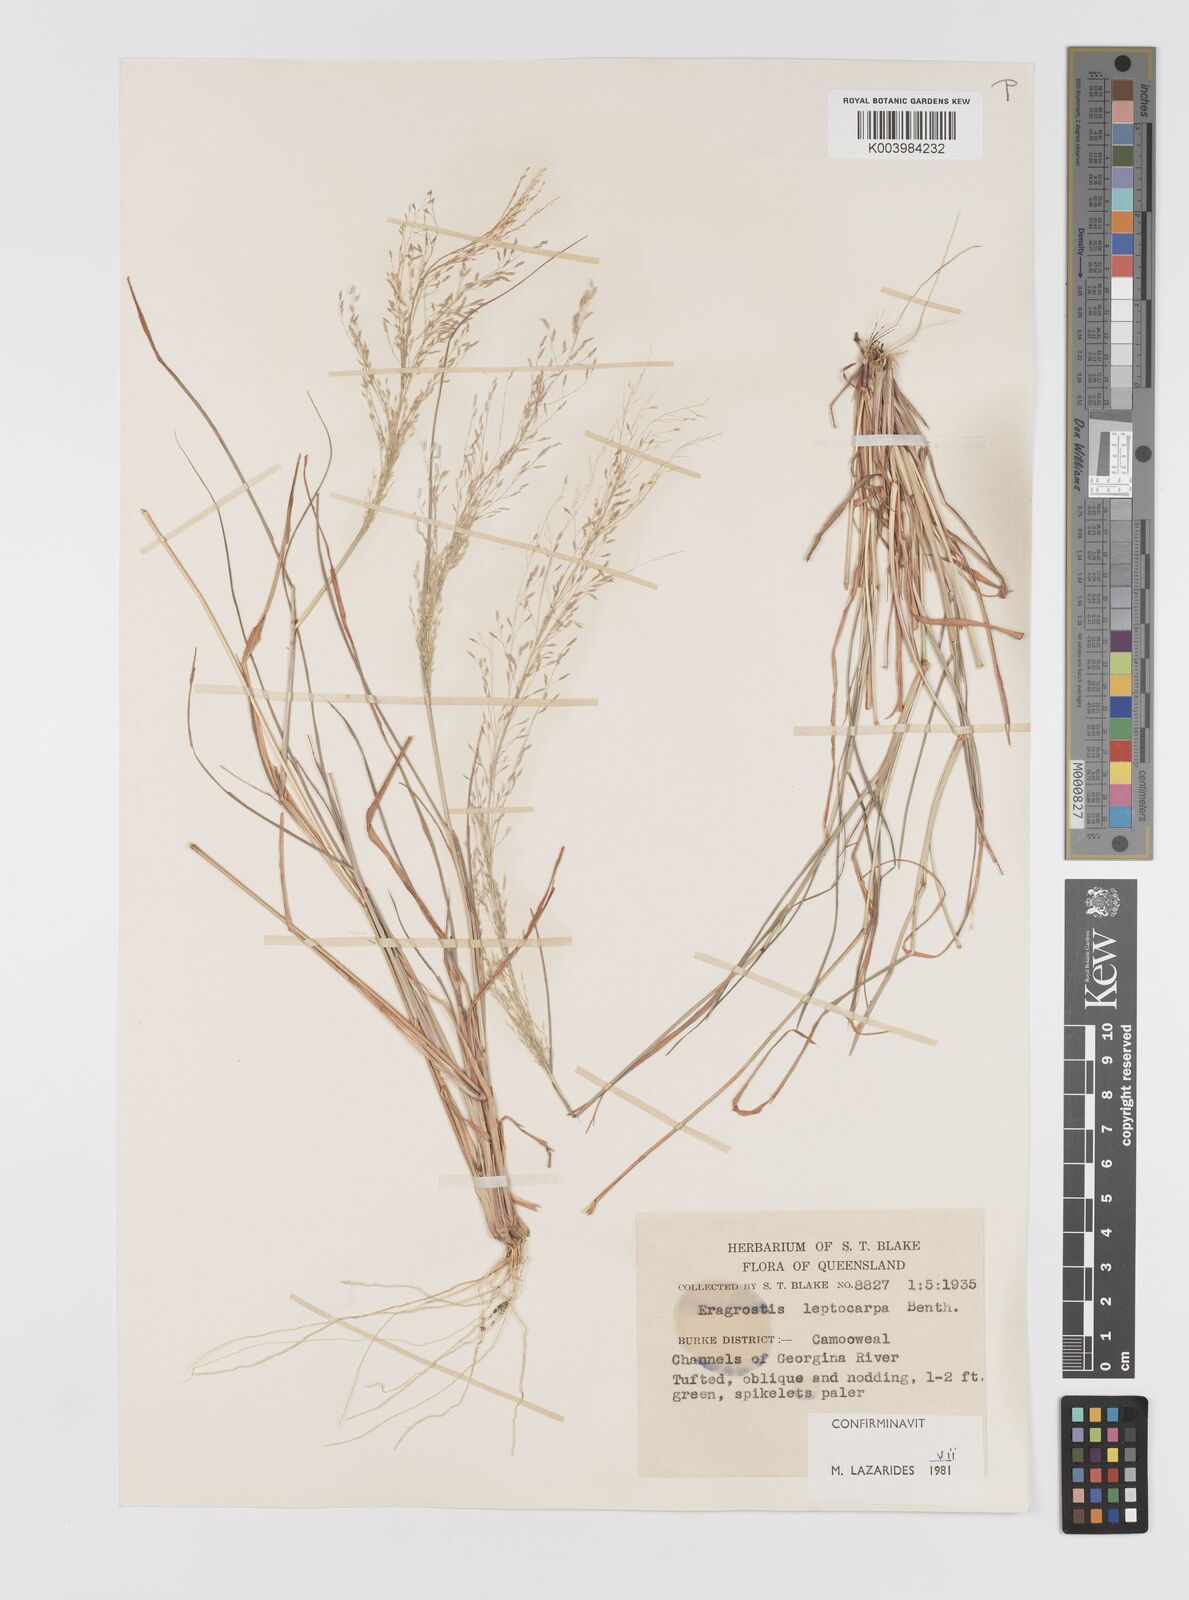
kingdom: Plantae
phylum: Tracheophyta
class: Liliopsida
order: Poales
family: Poaceae
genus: Eragrostis
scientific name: Eragrostis leptocarpa
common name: Drooping love grass
